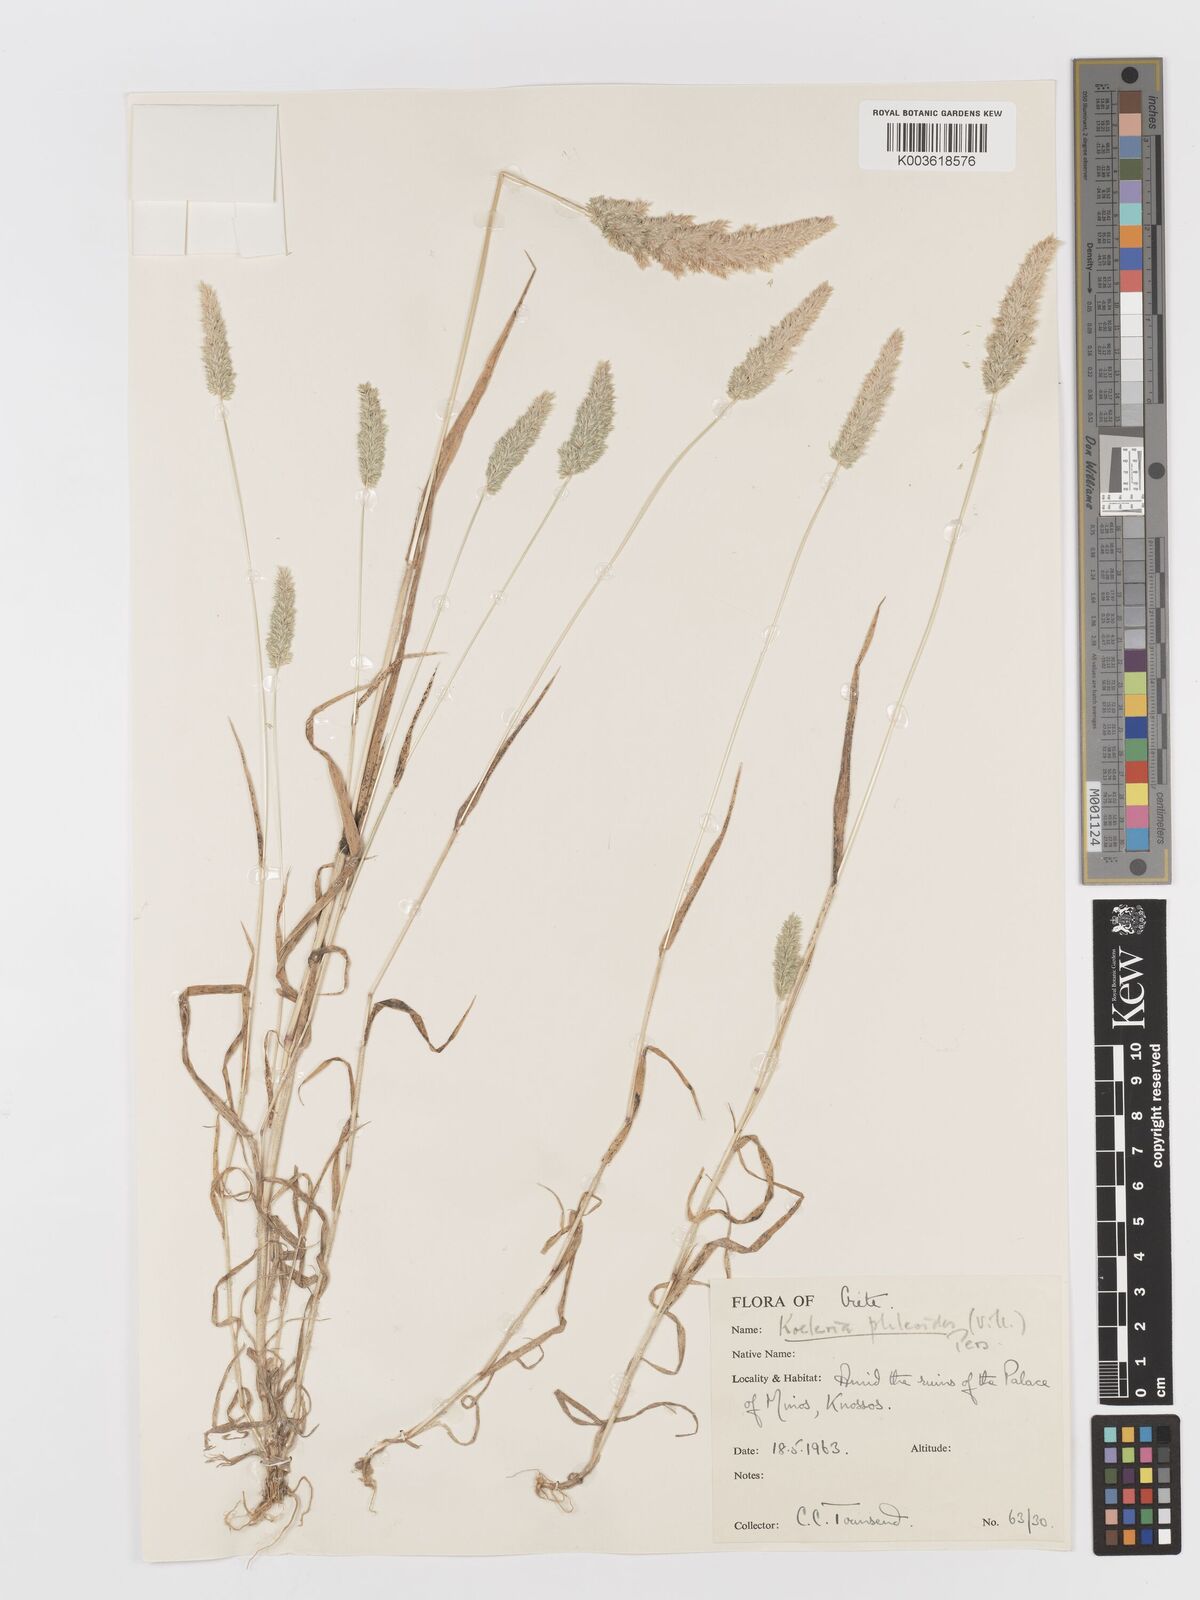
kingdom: Plantae
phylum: Tracheophyta
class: Liliopsida
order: Poales
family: Poaceae
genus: Rostraria
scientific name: Rostraria cristata
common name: Mediterranean hair-grass
